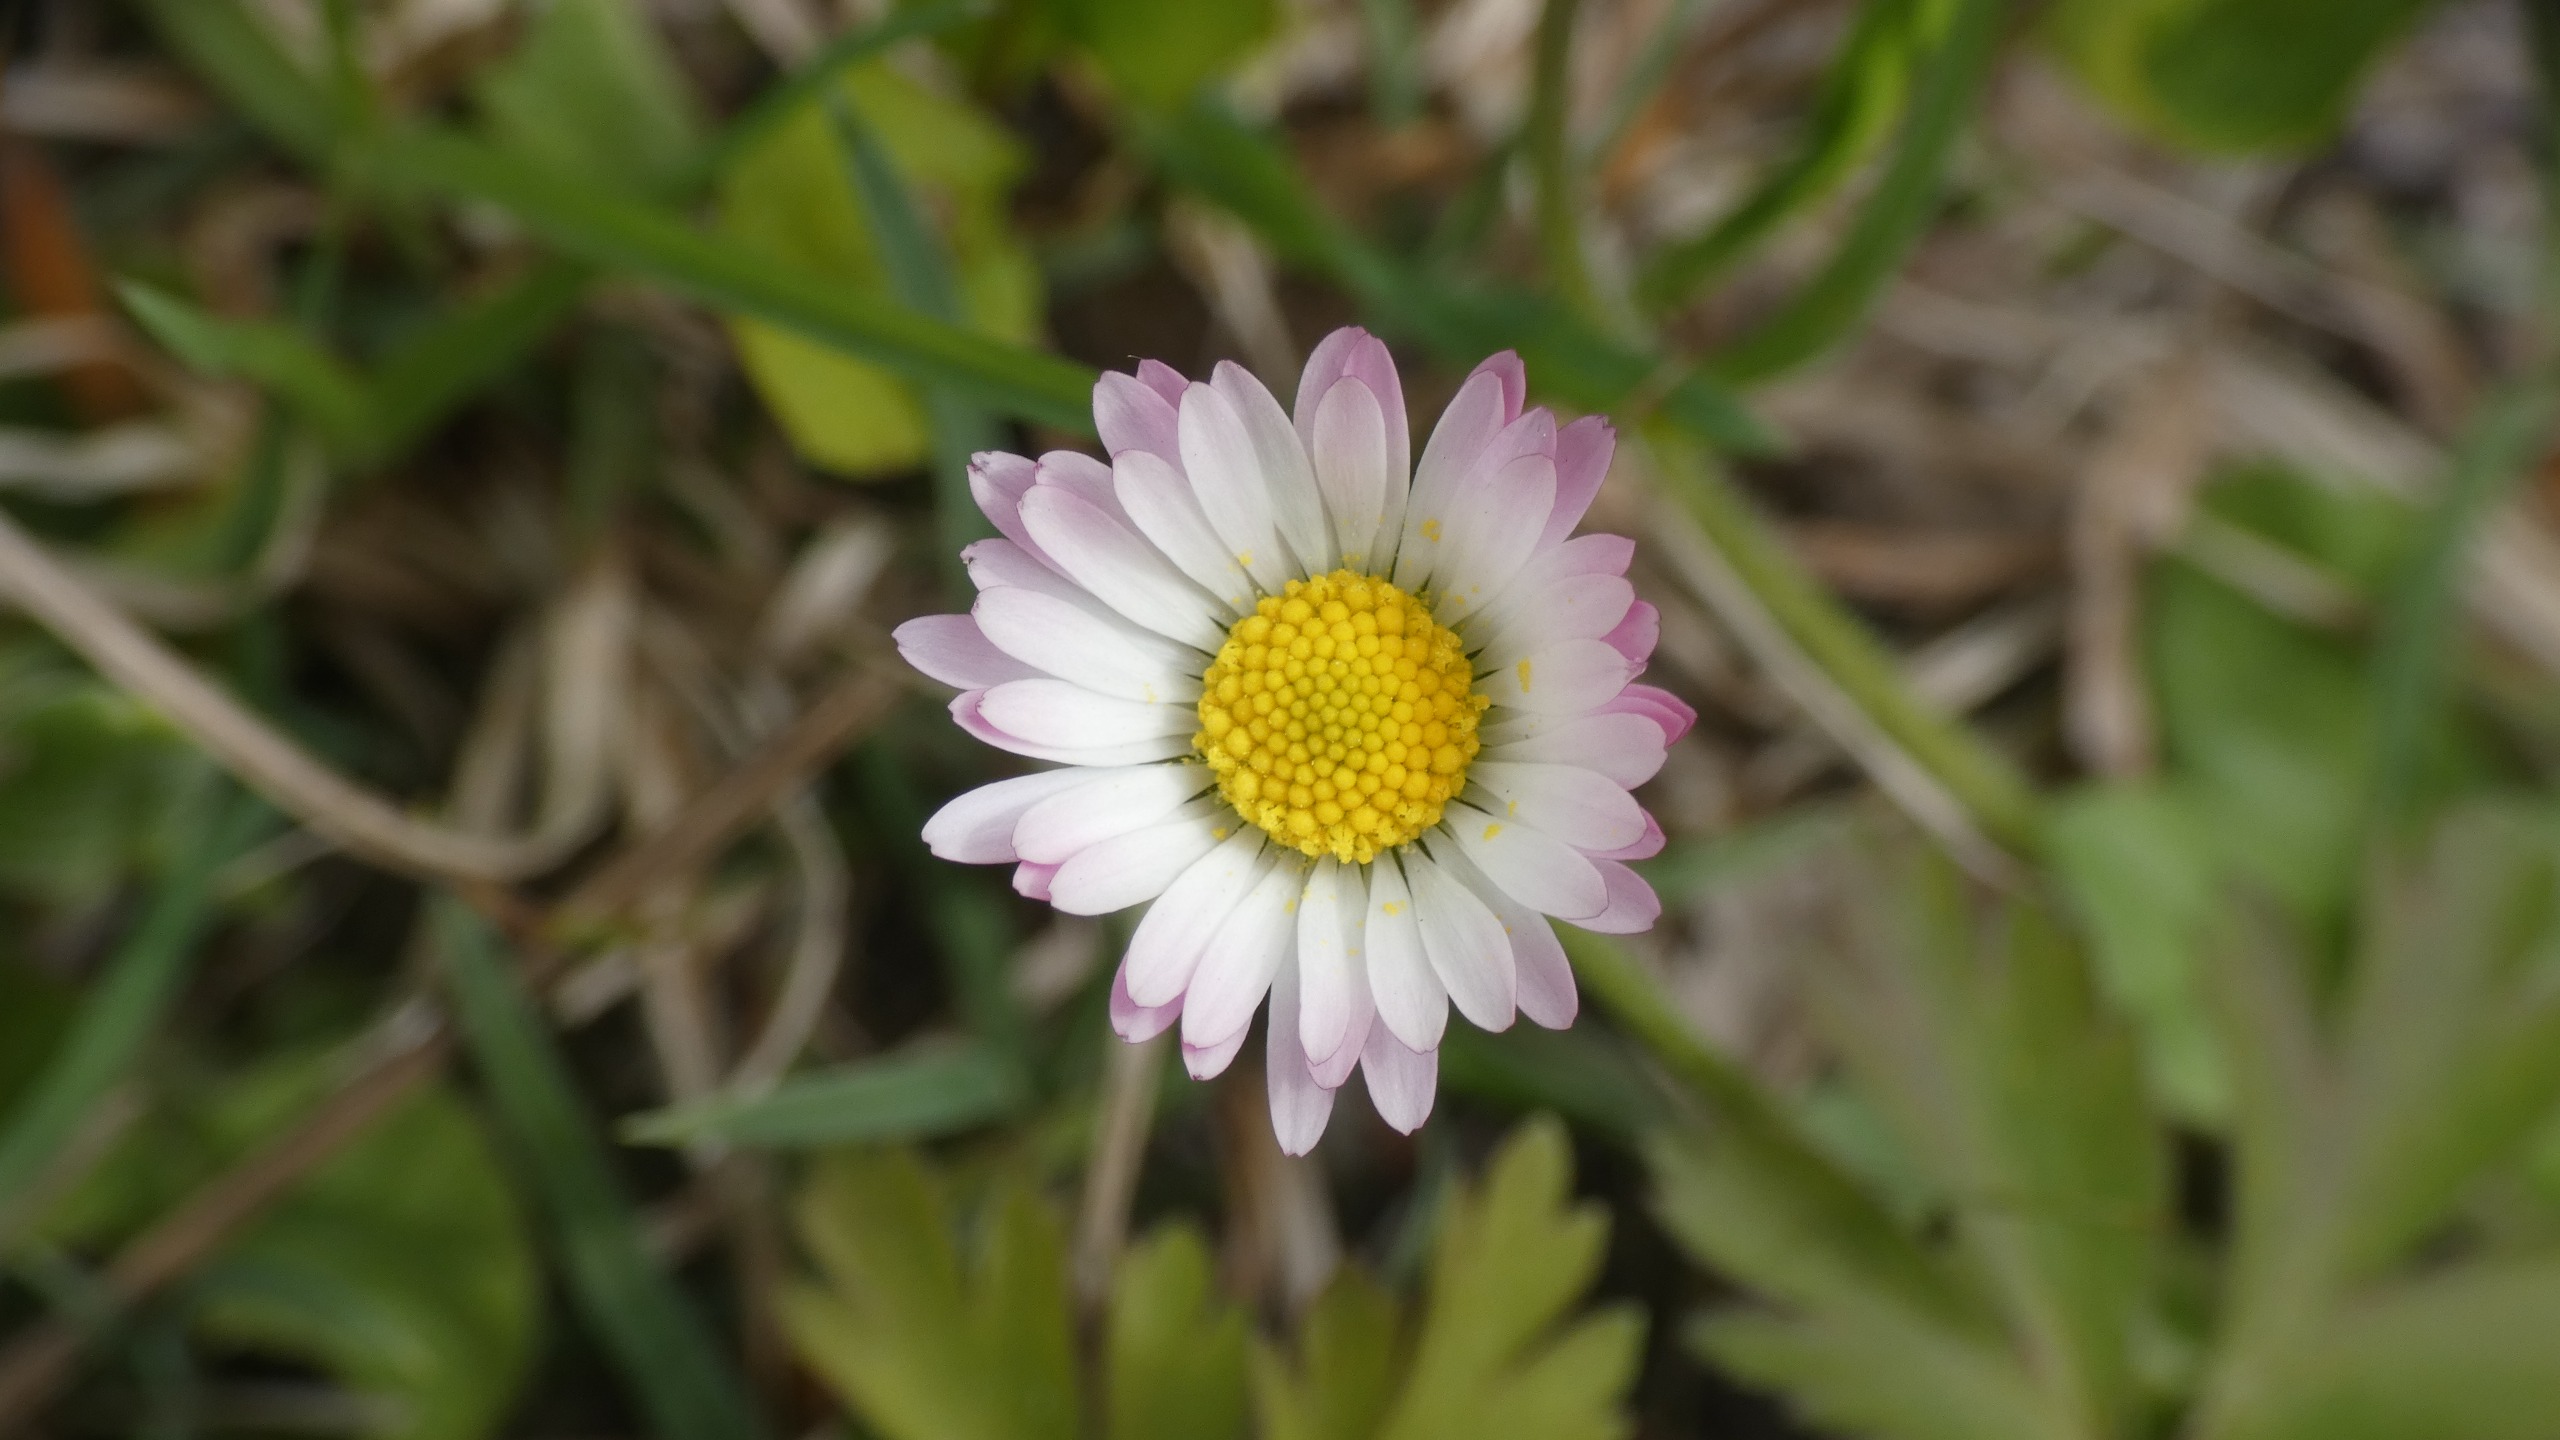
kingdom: Plantae
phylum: Tracheophyta
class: Magnoliopsida
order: Asterales
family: Asteraceae
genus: Bellis
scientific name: Bellis perennis
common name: Tusindfryd
